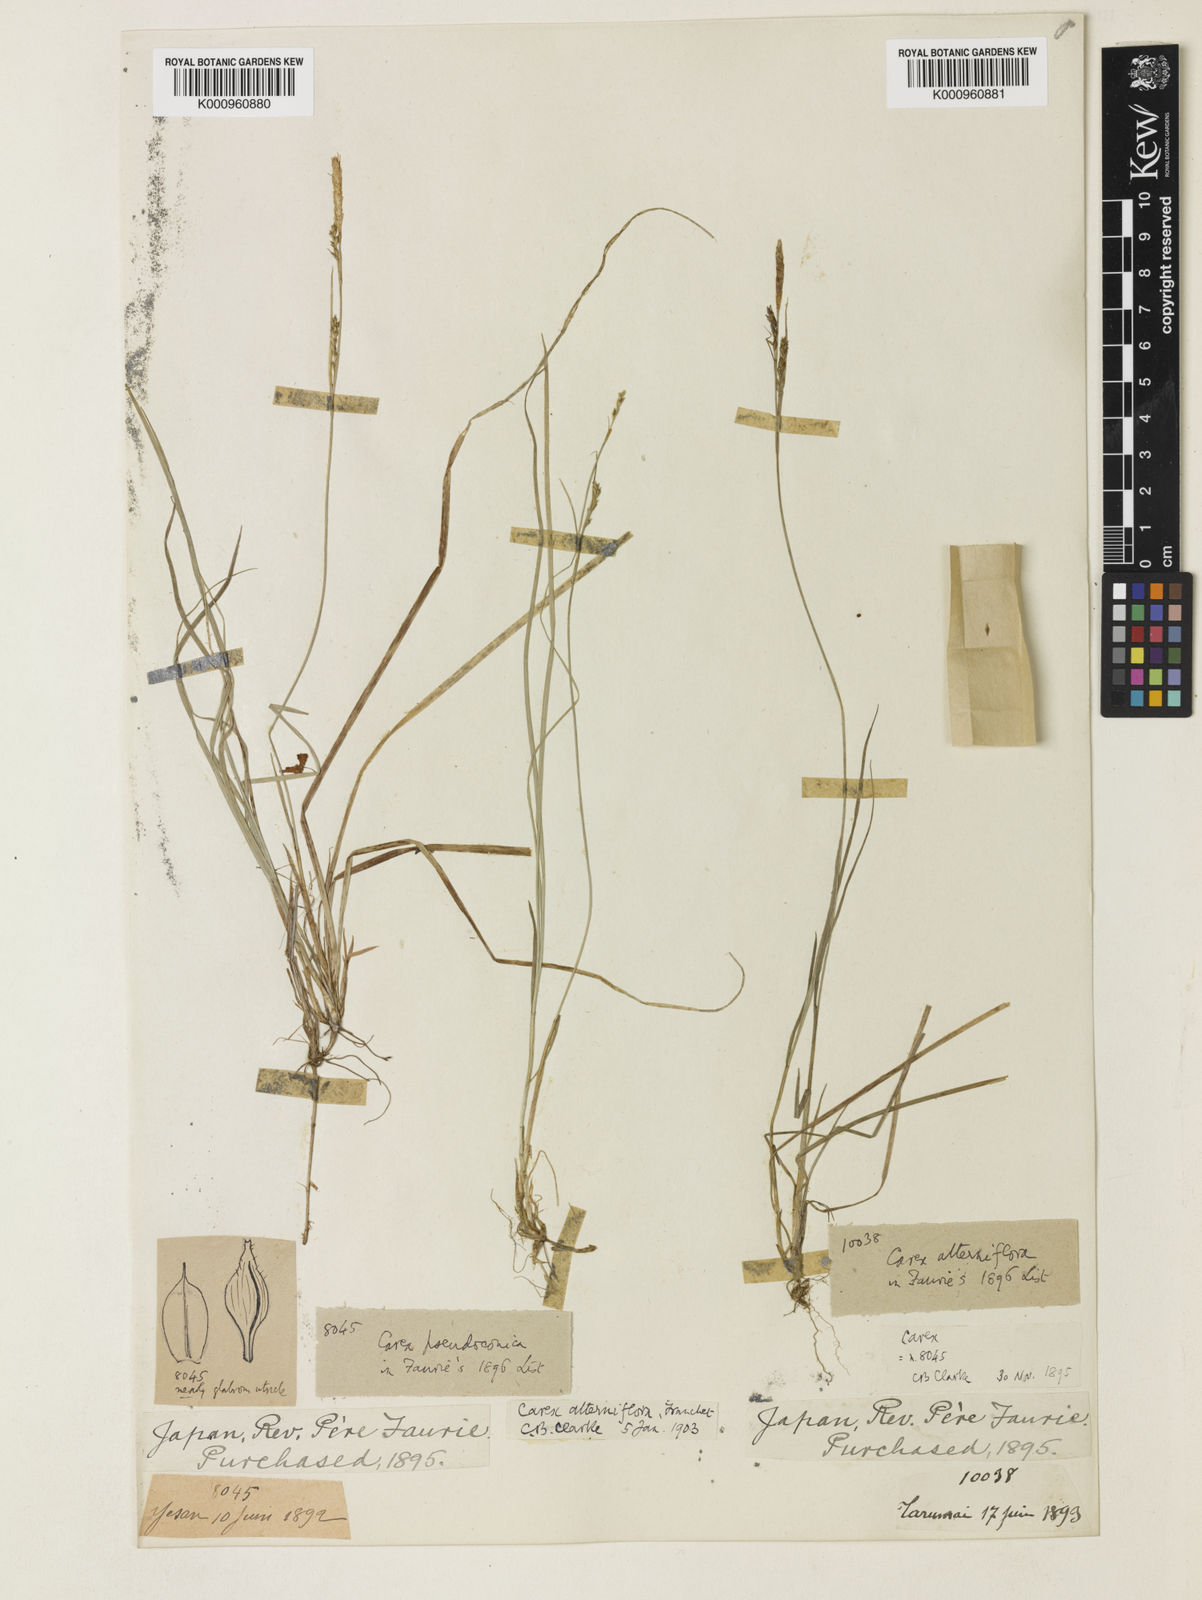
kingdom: Plantae
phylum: Tracheophyta
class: Liliopsida
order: Poales
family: Cyperaceae
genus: Carex
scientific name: Carex muricata
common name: Rough sedge
